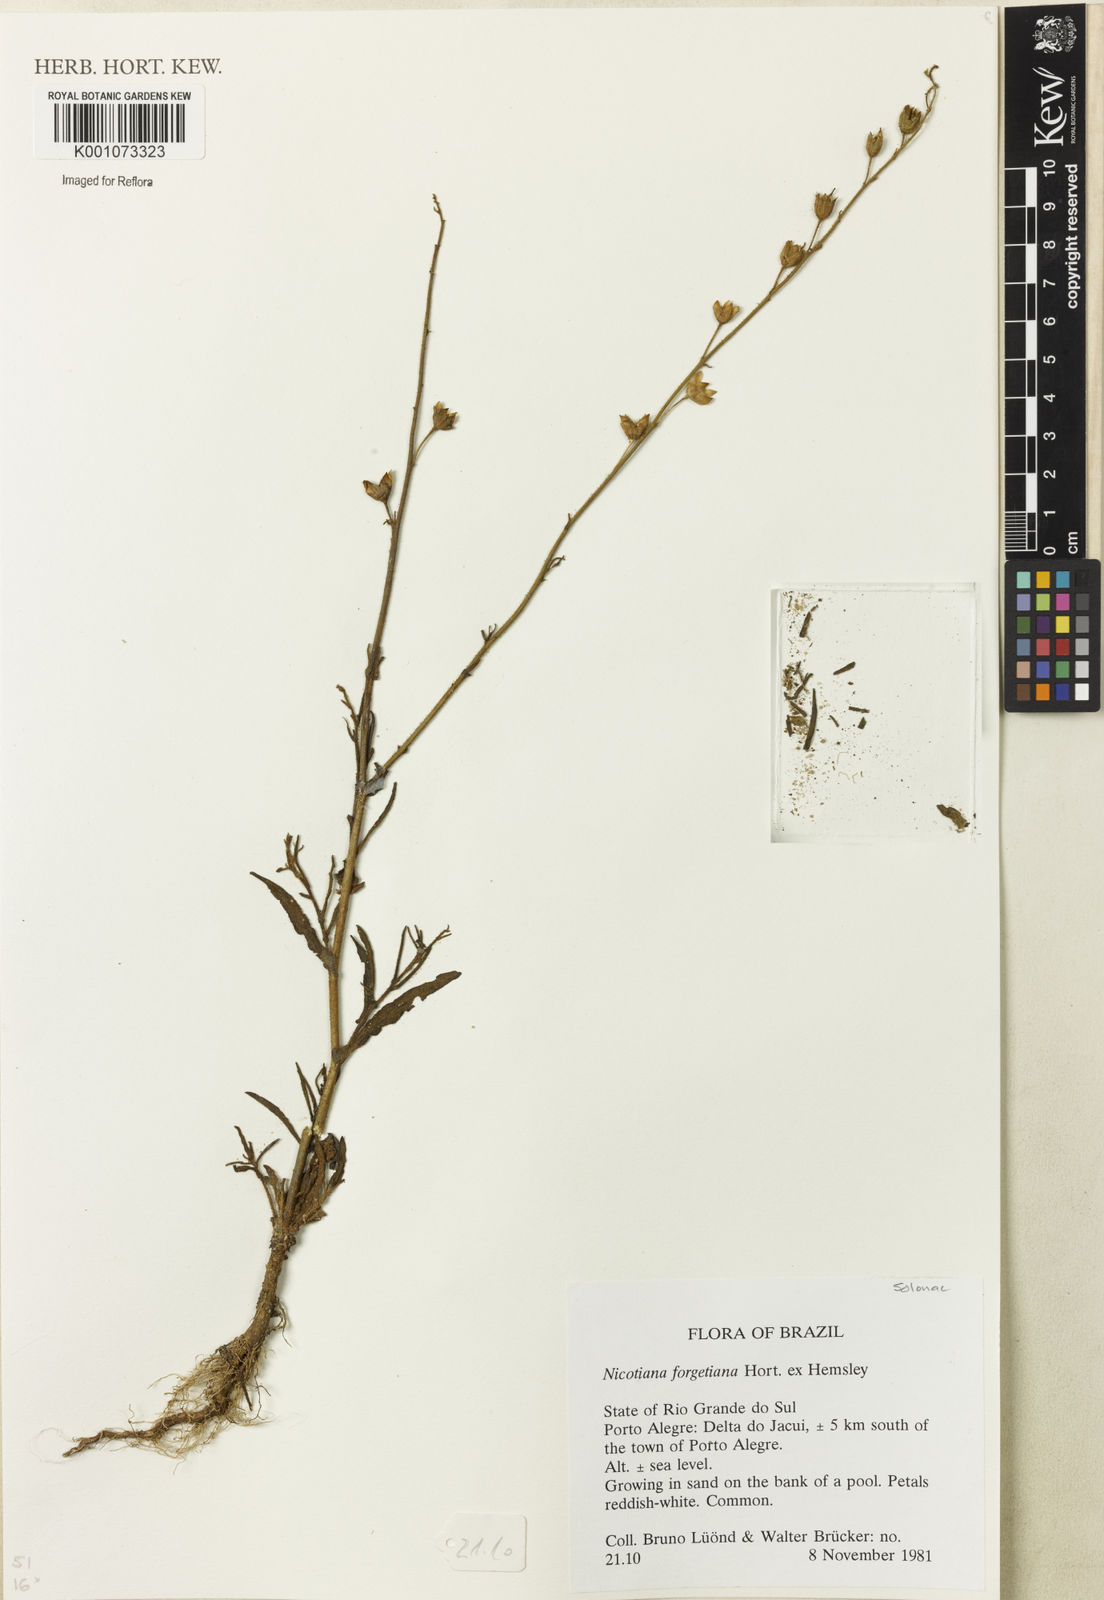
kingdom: Plantae
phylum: Tracheophyta
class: Magnoliopsida
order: Solanales
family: Solanaceae
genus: Nicotiana
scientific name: Nicotiana
